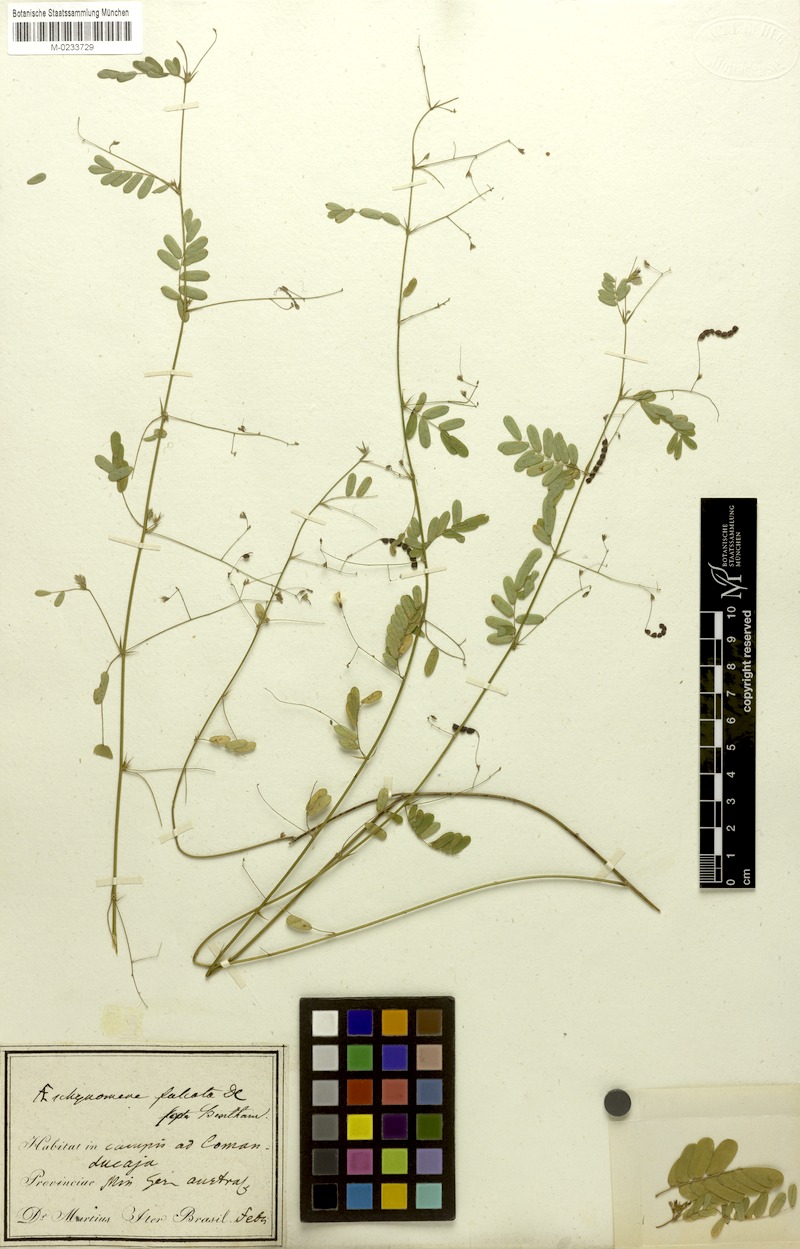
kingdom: Plantae
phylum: Tracheophyta
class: Magnoliopsida
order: Fabales
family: Fabaceae
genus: Ctenodon
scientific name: Ctenodon falcatus
